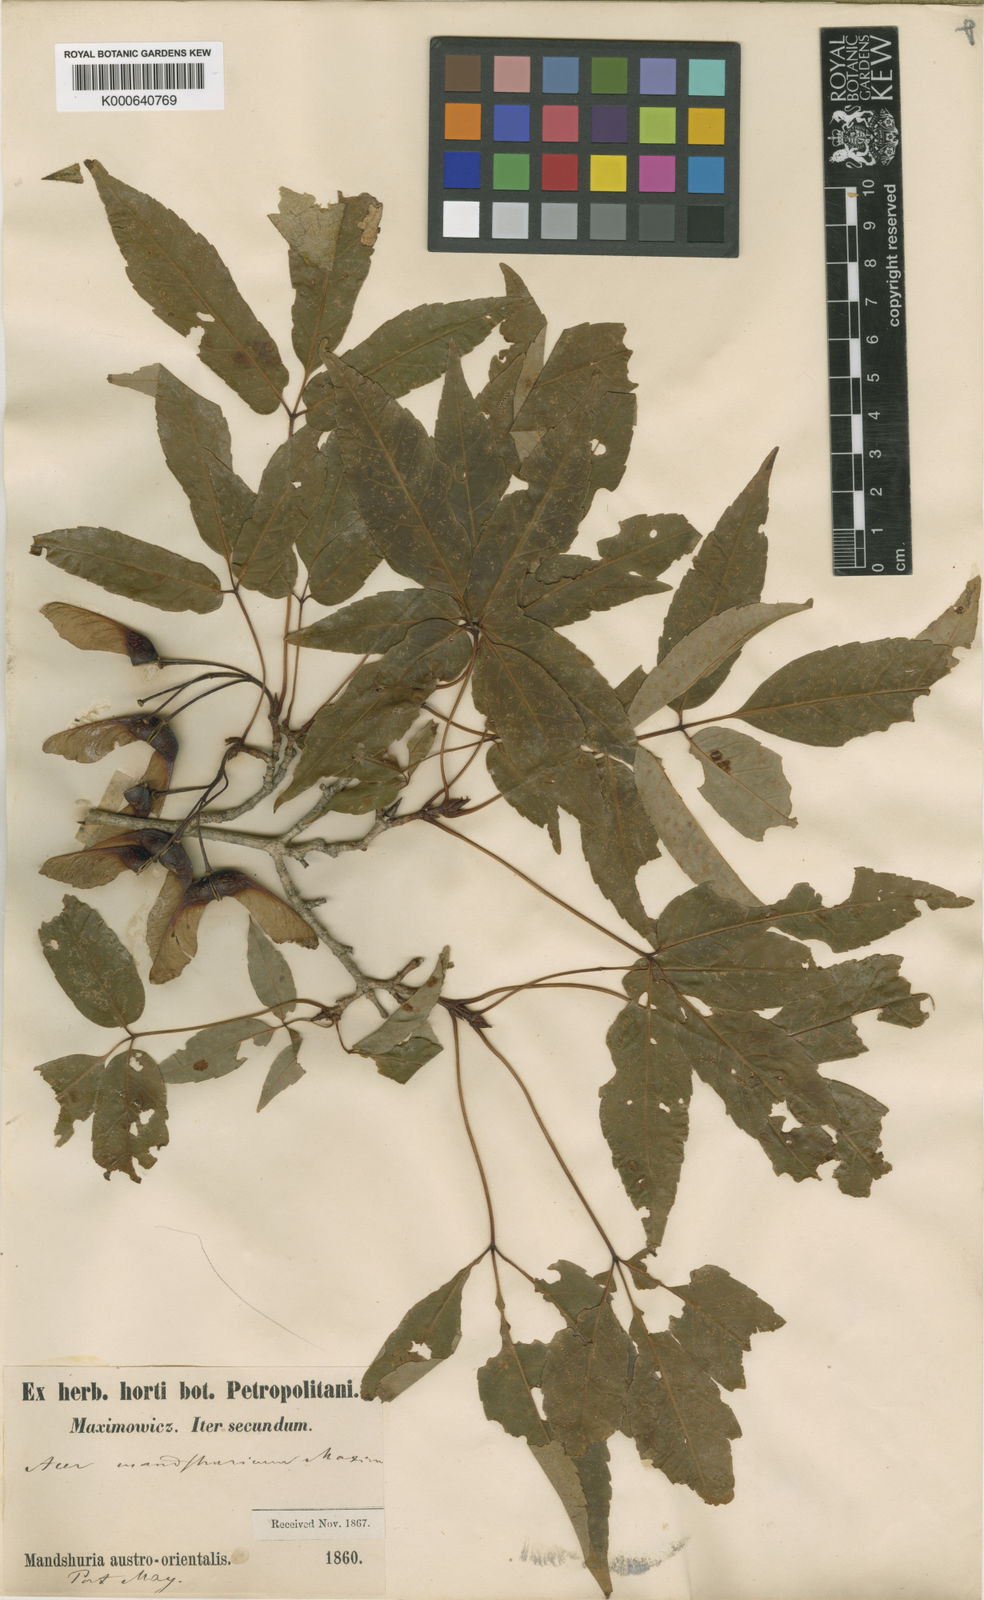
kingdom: Plantae
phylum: Tracheophyta
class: Magnoliopsida
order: Sapindales
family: Sapindaceae
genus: Acer
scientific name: Acer mandshuricum
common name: Manchurian maple
